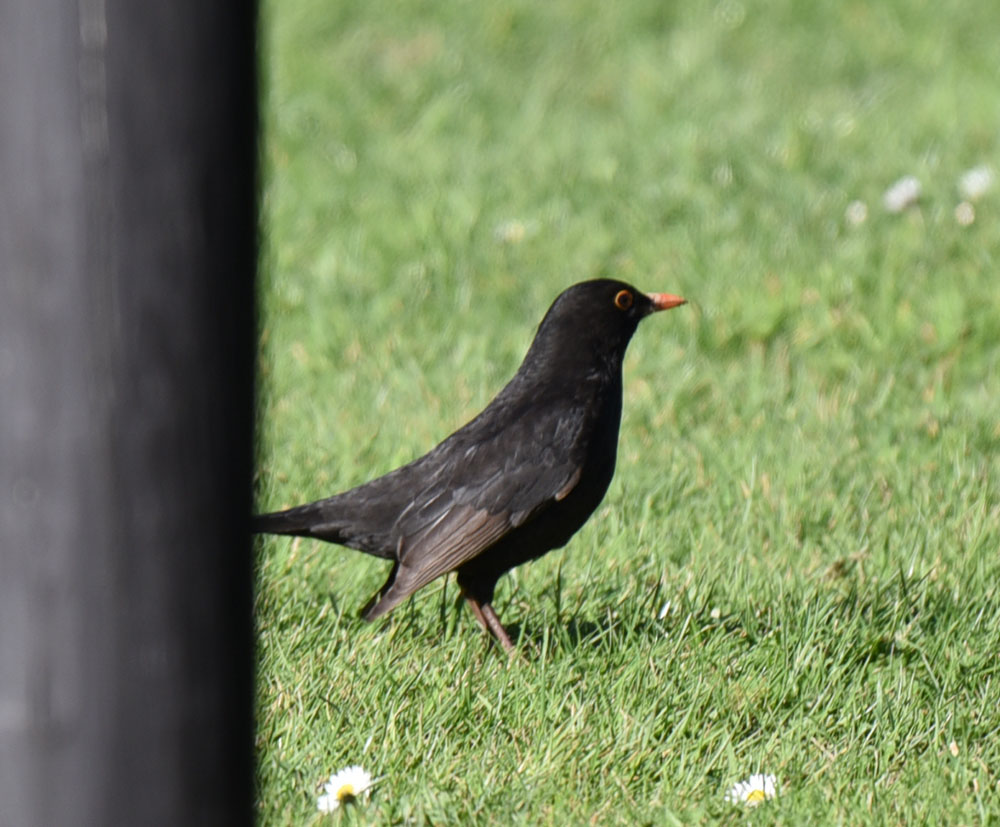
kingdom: Animalia
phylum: Chordata
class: Aves
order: Passeriformes
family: Turdidae
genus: Turdus
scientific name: Turdus merula
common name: Common blackbird
